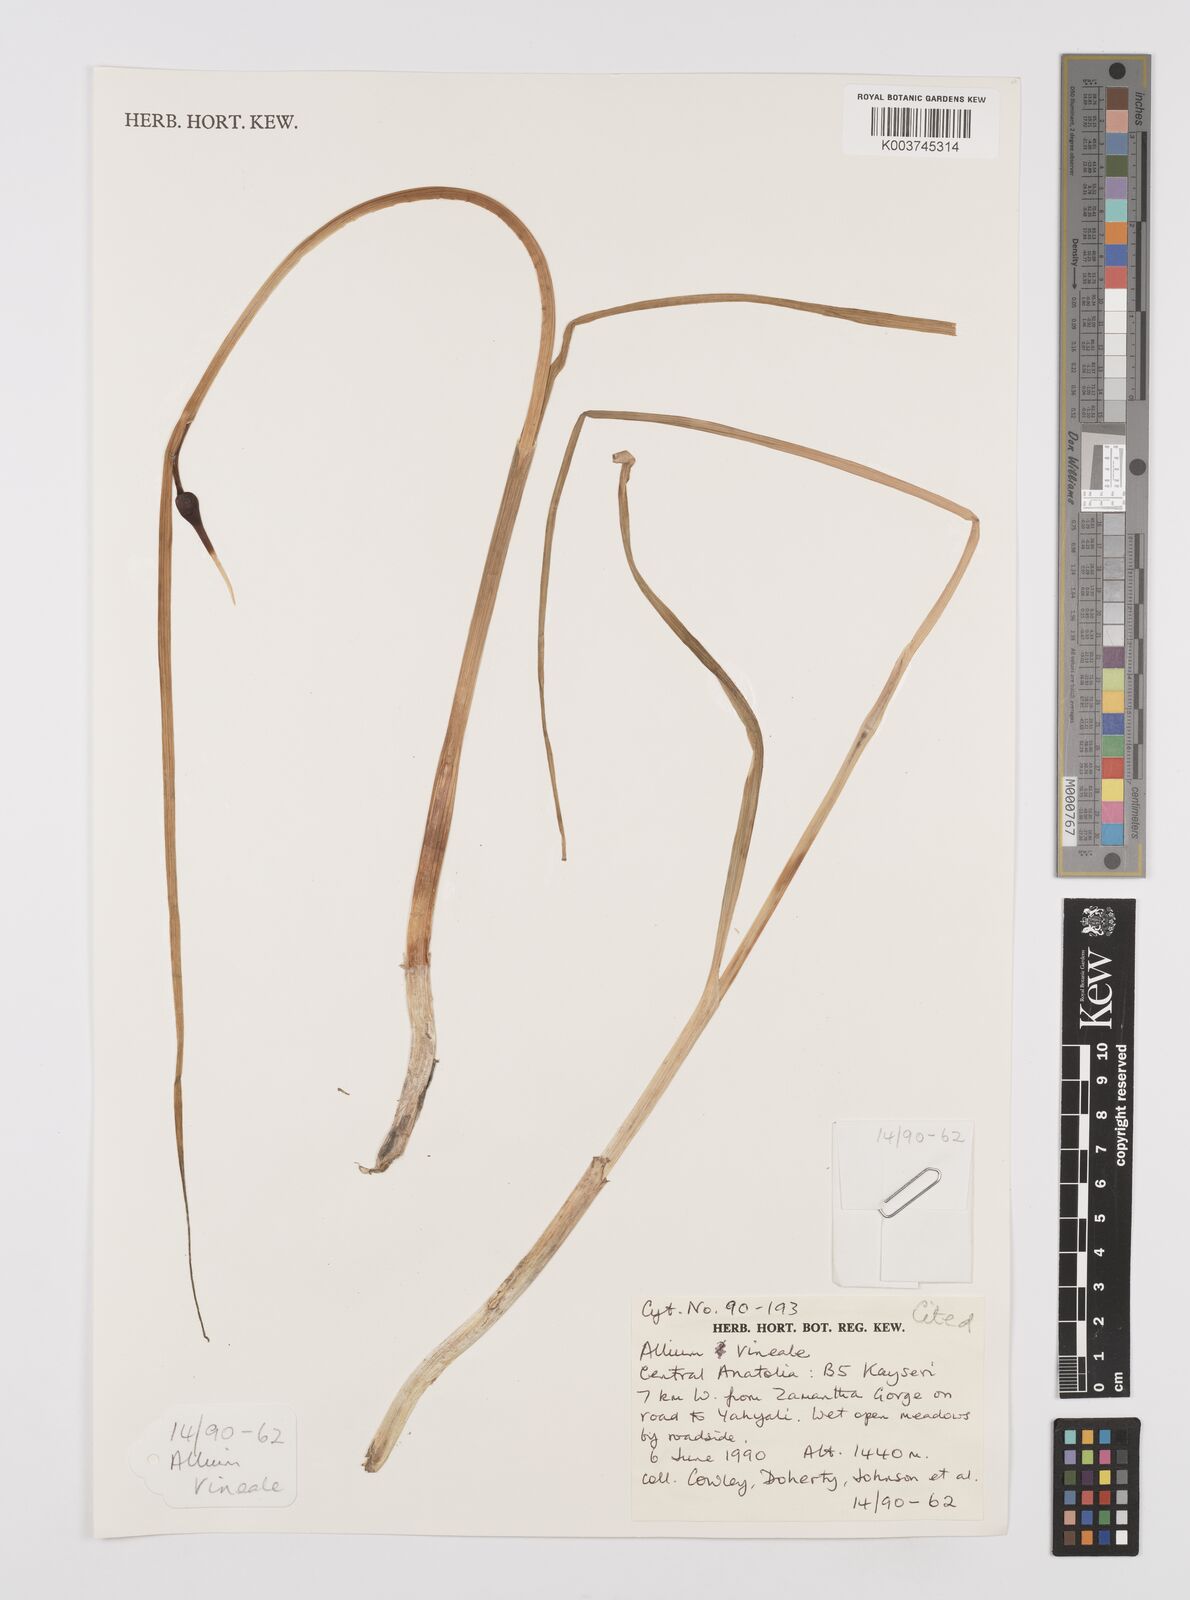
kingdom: Plantae
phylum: Tracheophyta
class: Liliopsida
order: Asparagales
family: Amaryllidaceae
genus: Allium
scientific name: Allium vineale
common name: Crow garlic
